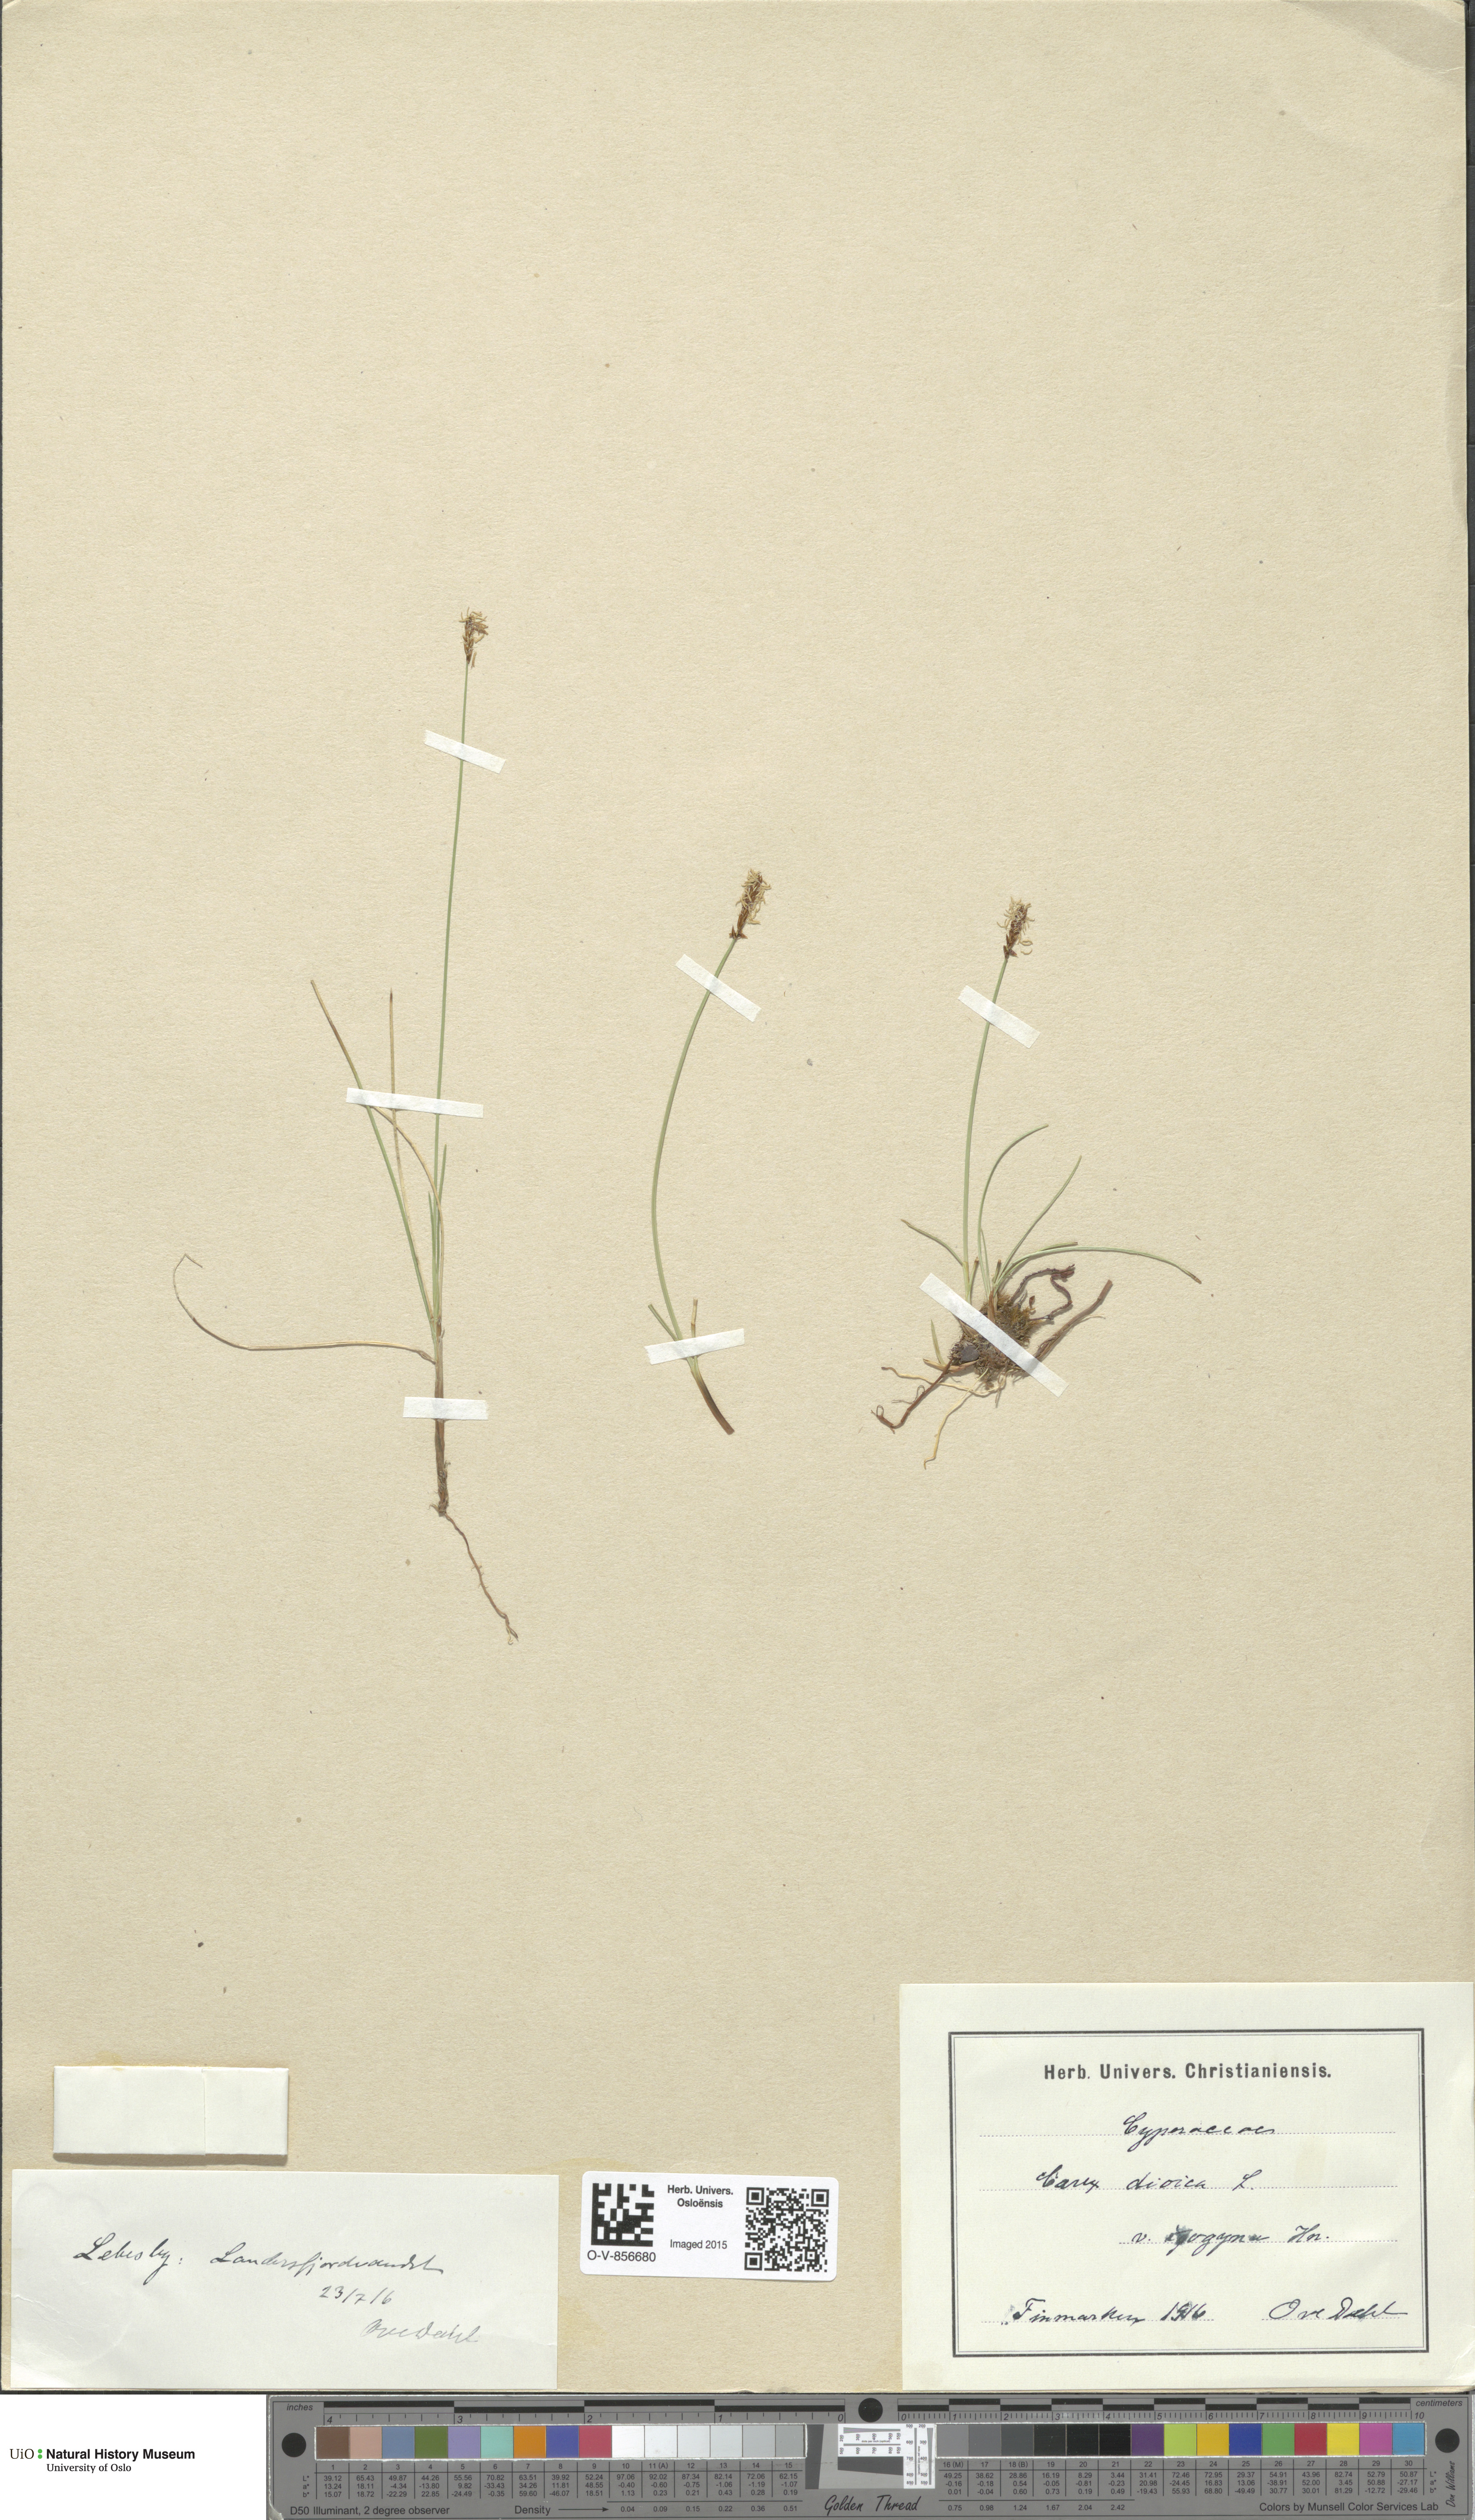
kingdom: Plantae
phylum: Tracheophyta
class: Liliopsida
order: Poales
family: Cyperaceae
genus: Carex
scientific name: Carex dioica
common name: Dioecious sedge
